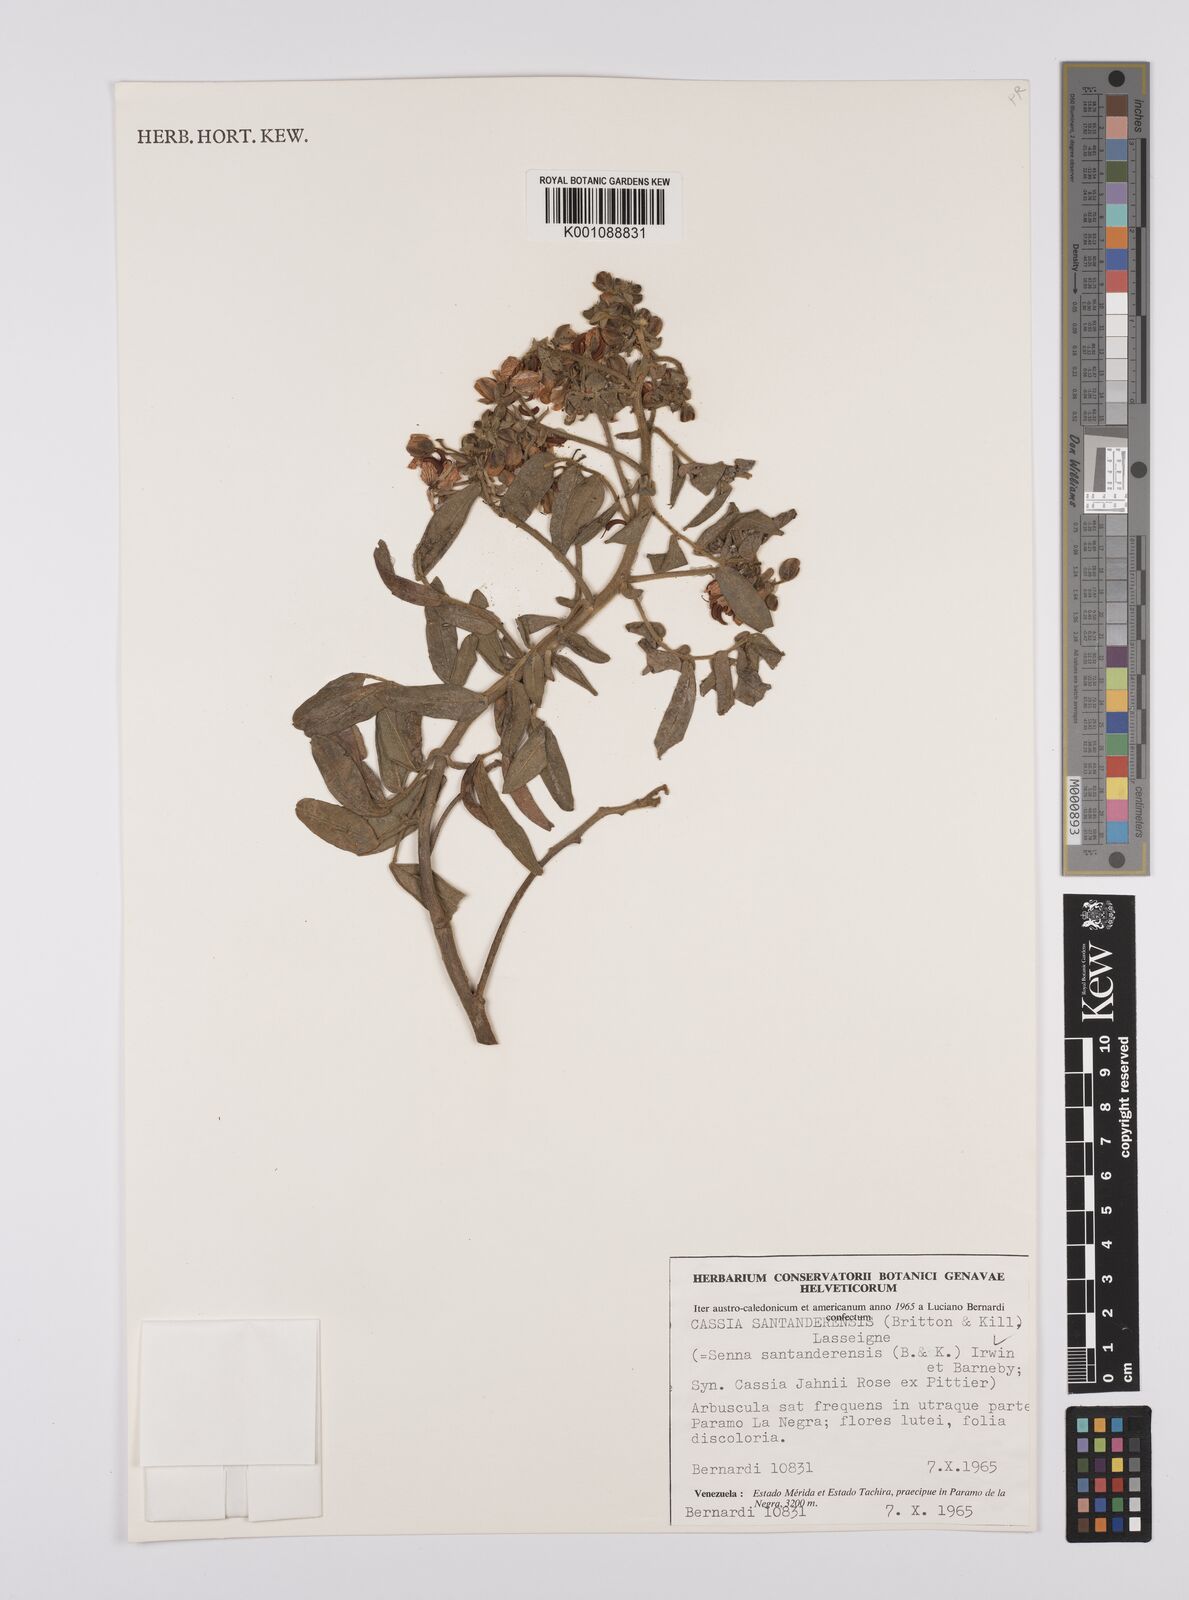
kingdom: Plantae
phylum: Tracheophyta
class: Magnoliopsida
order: Fabales
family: Fabaceae
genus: Senna
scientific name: Senna santanderensis
